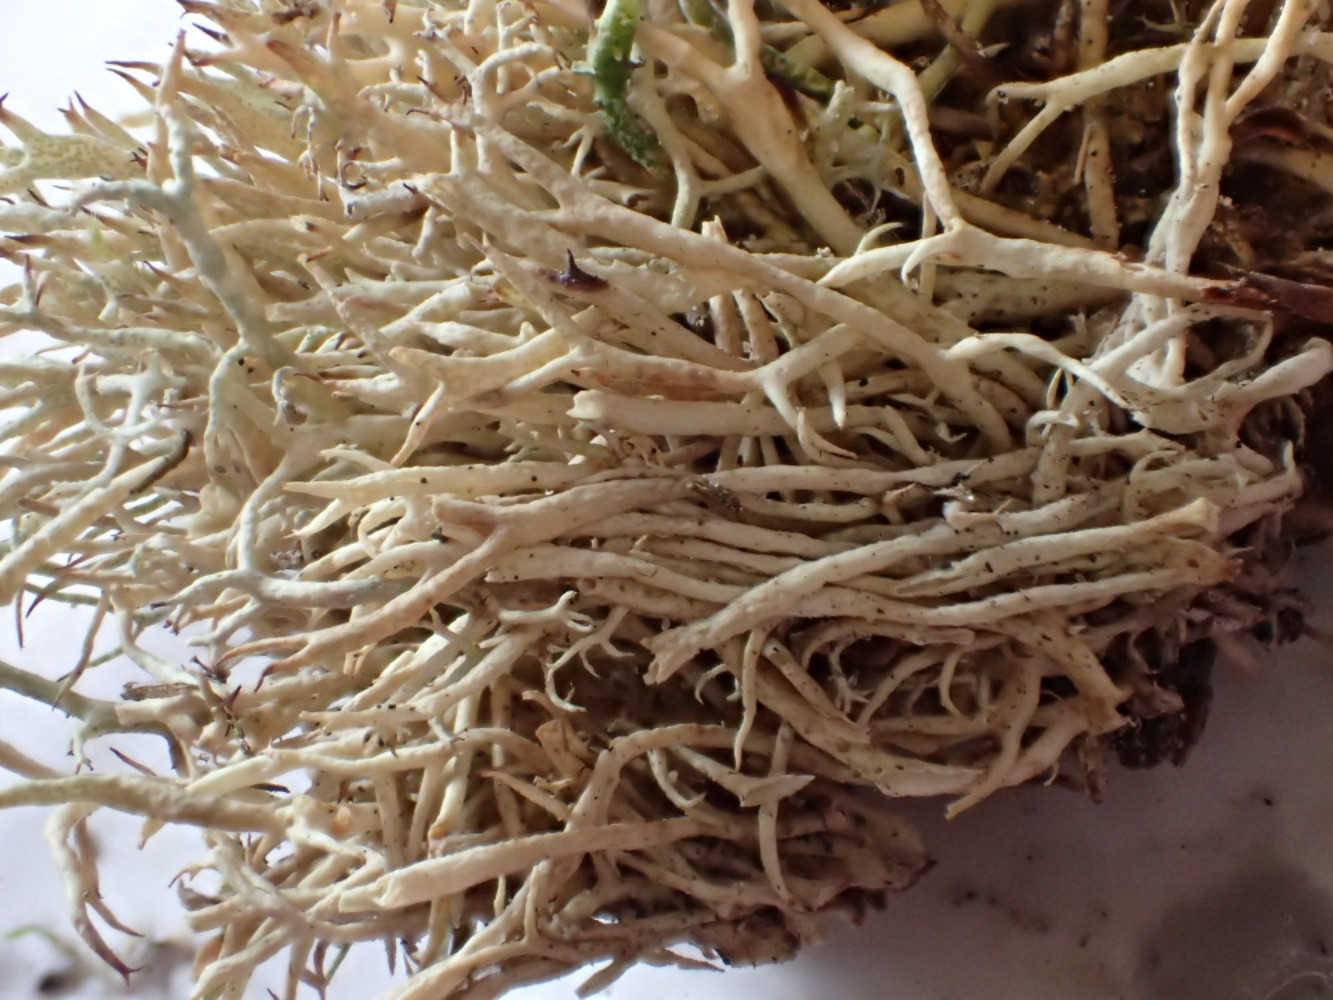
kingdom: Fungi
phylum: Ascomycota
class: Lecanoromycetes
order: Lecanorales
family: Cladoniaceae
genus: Cladonia
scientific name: Cladonia zopfii
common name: klit-bægerlav
